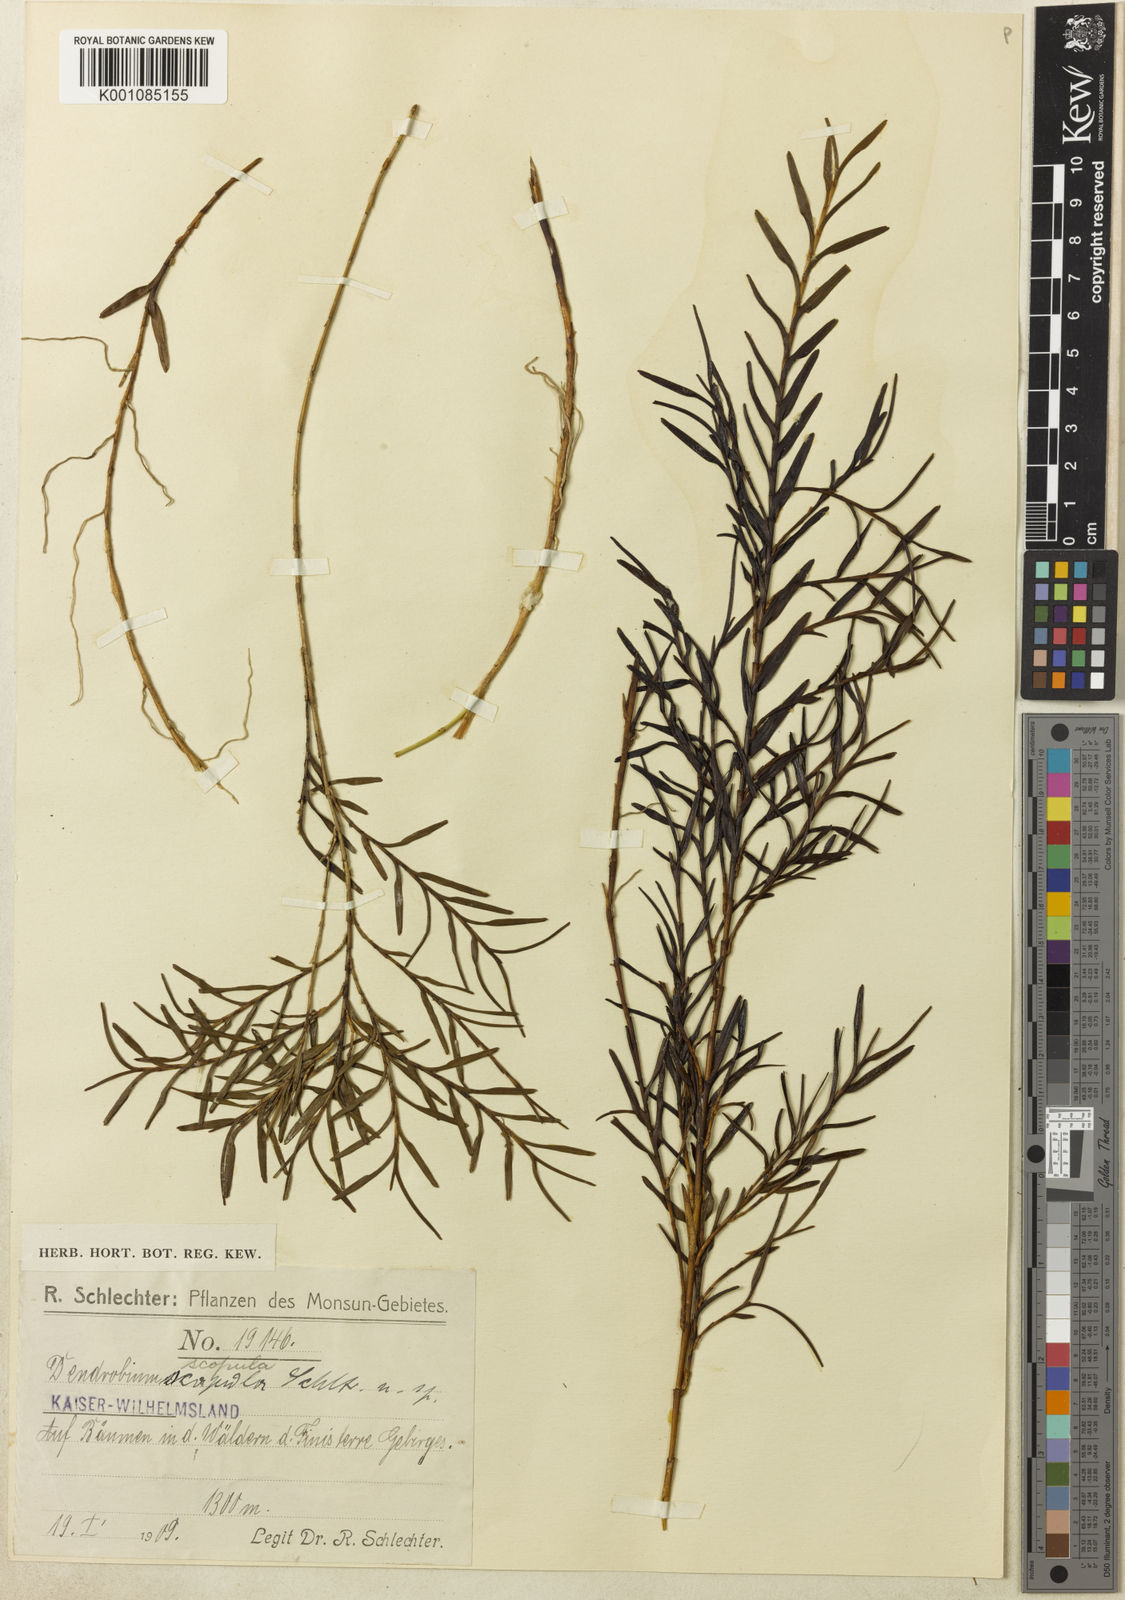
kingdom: Plantae
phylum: Tracheophyta
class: Liliopsida
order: Asparagales
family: Orchidaceae
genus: Dendrobium
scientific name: Dendrobium scopula
